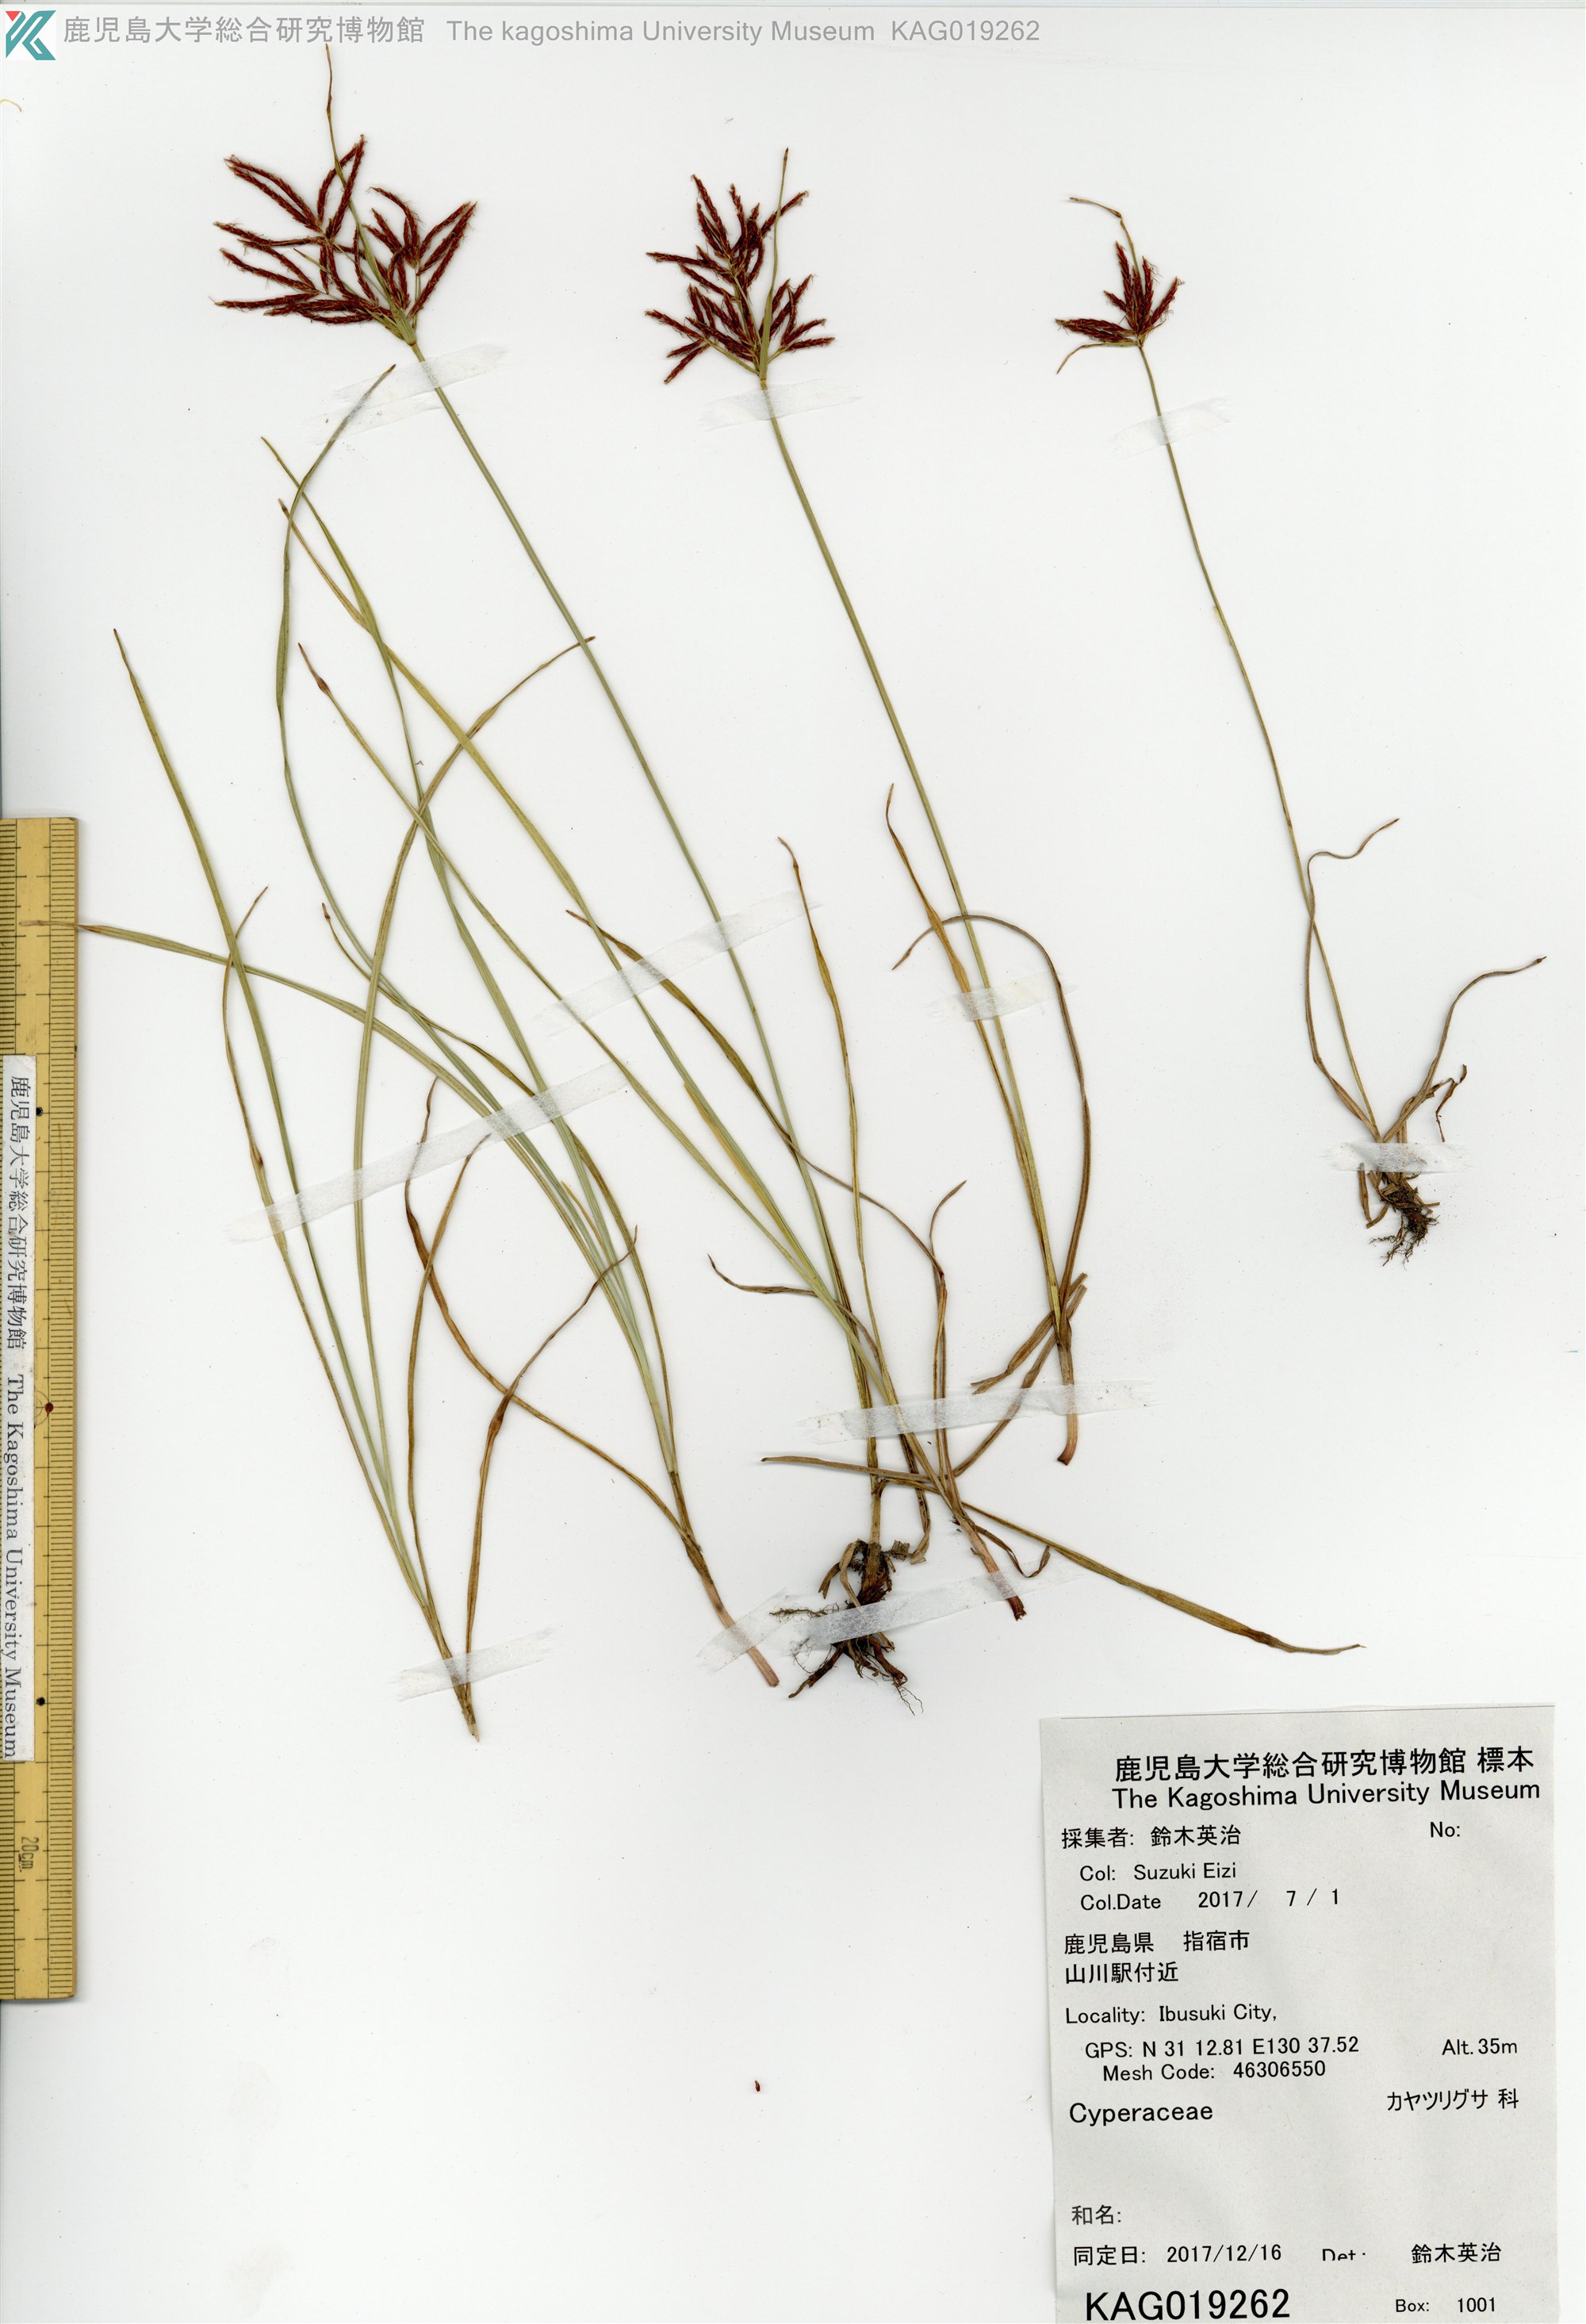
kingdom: Plantae
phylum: Tracheophyta
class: Liliopsida
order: Poales
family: Cyperaceae
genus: Cyperus
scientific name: Cyperus rotundus
